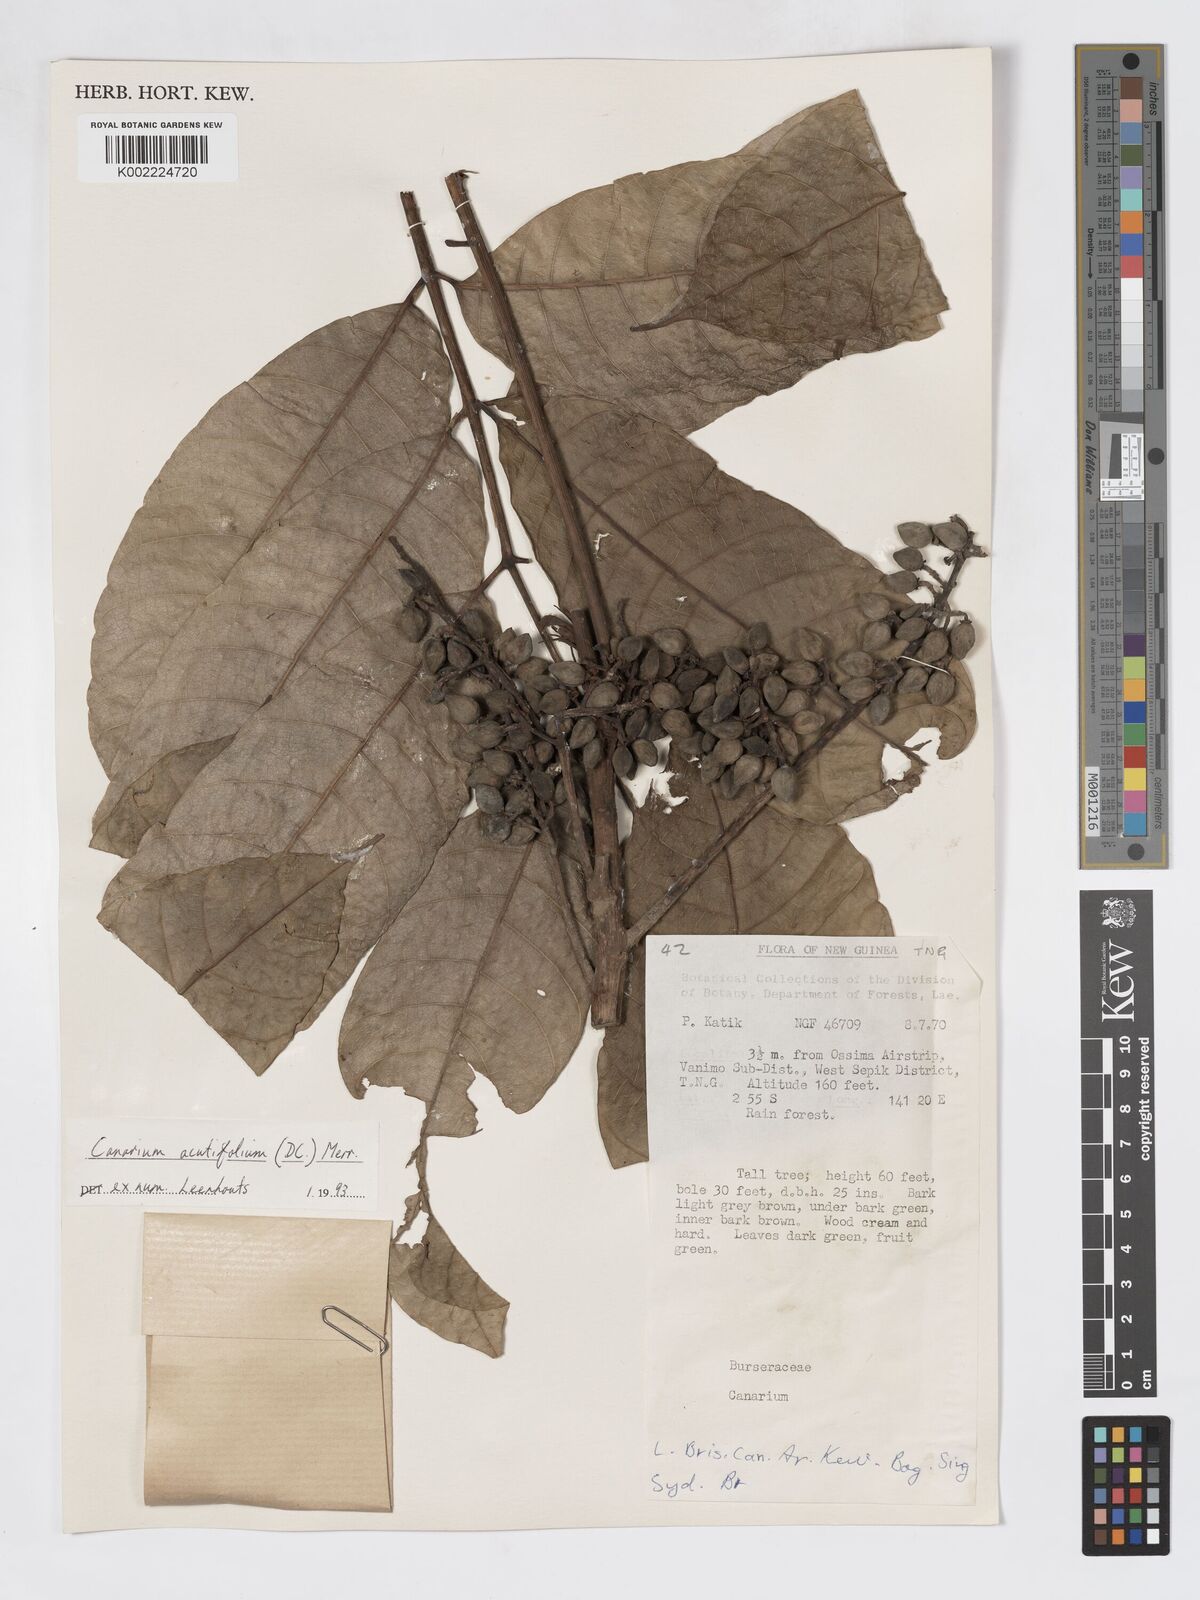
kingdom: Plantae
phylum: Tracheophyta
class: Magnoliopsida
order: Sapindales
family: Burseraceae
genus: Canarium
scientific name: Canarium acutifolium
